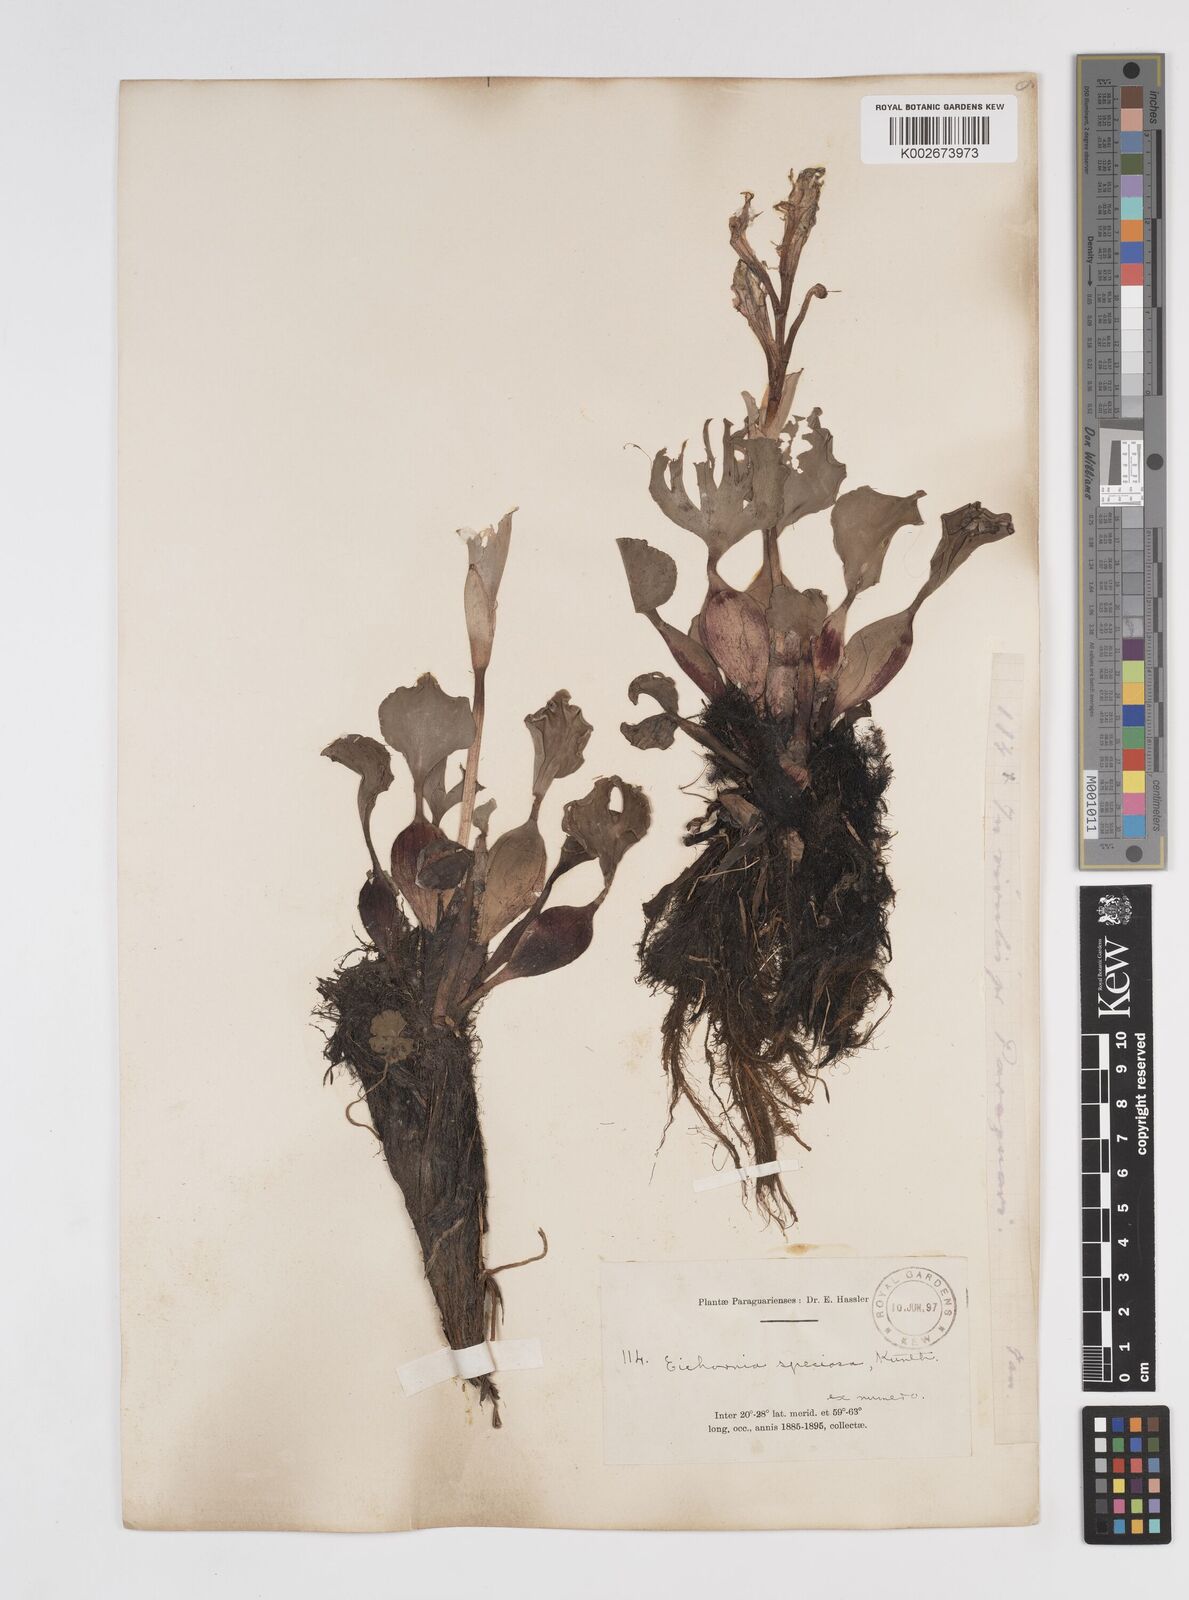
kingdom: Plantae
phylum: Tracheophyta
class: Liliopsida
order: Commelinales
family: Pontederiaceae
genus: Pontederia
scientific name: Pontederia crassipes
